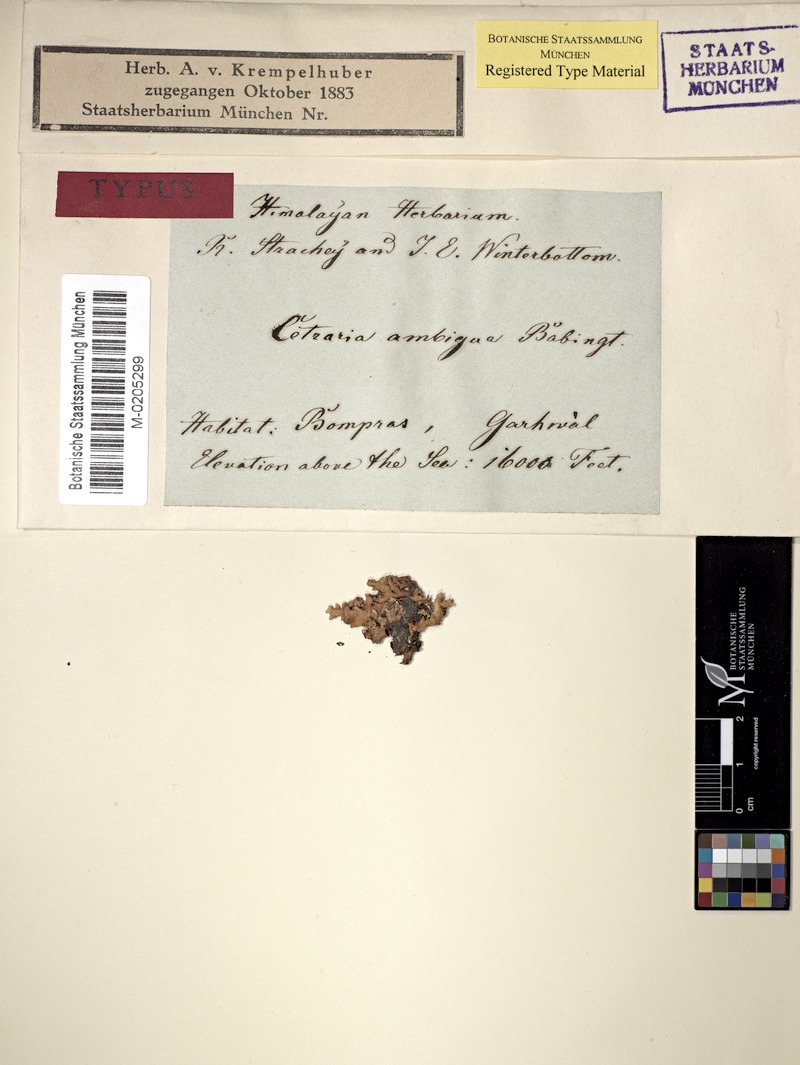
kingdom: Fungi
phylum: Ascomycota
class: Lecanoromycetes
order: Lecanorales
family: Parmeliaceae
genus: Allocetraria
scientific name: Allocetraria ambigua
